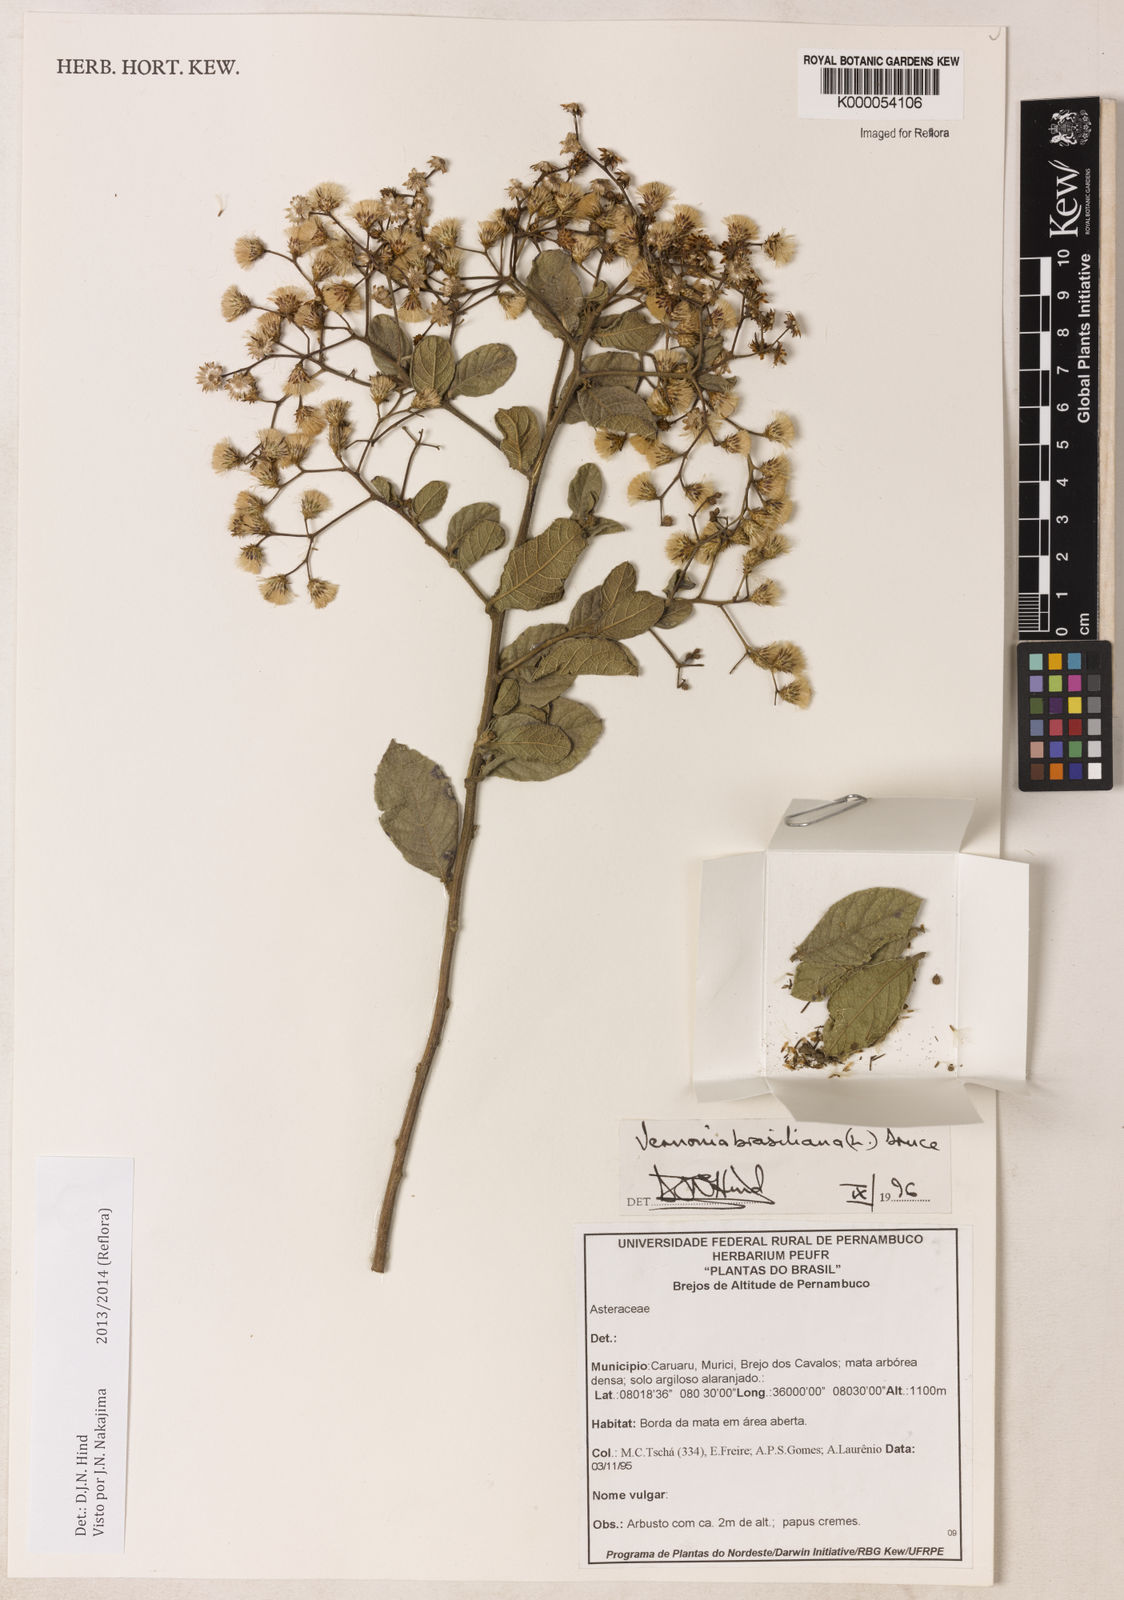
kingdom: Plantae
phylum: Tracheophyta
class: Magnoliopsida
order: Asterales
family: Asteraceae
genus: Vernonanthura
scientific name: Vernonanthura brasiliana
